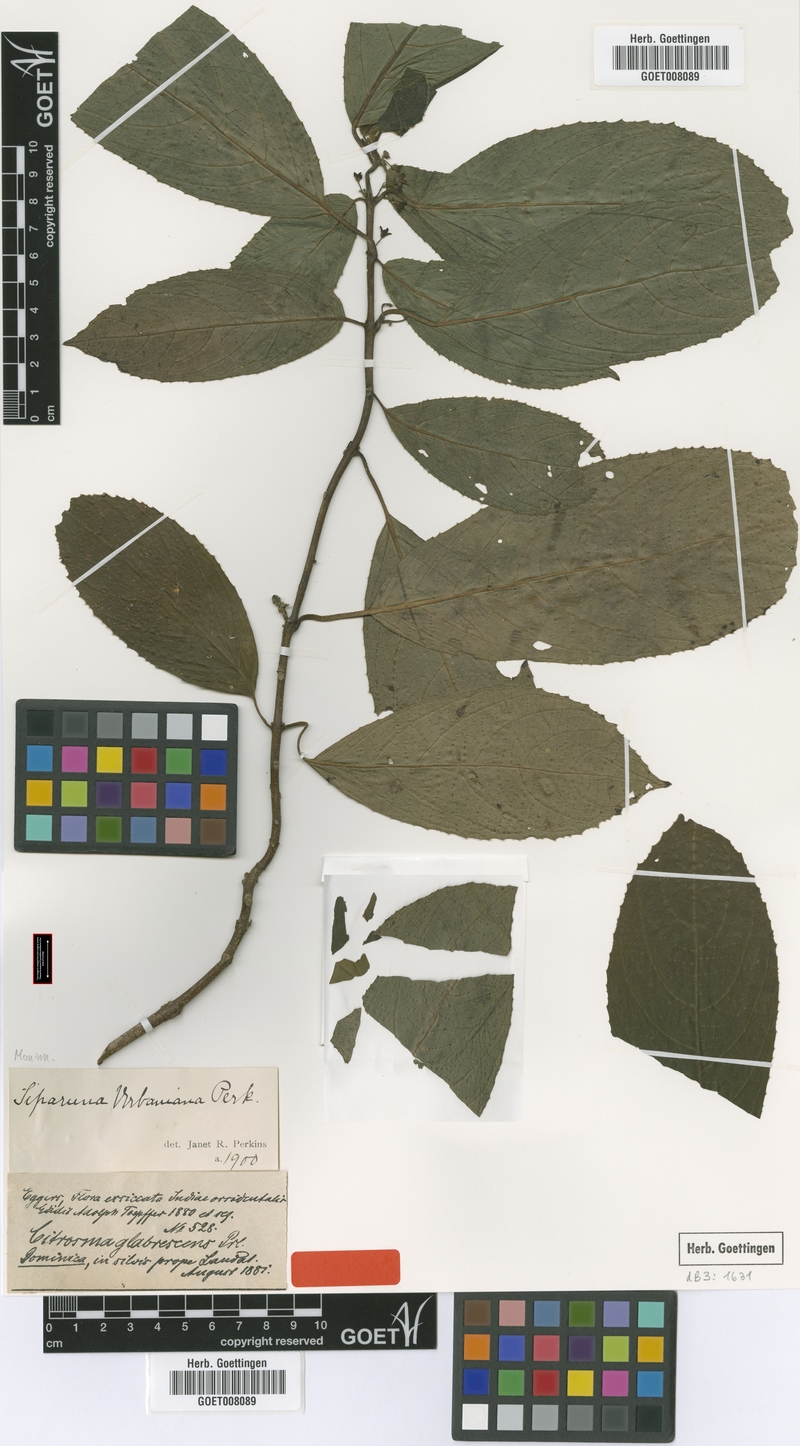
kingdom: Plantae
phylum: Tracheophyta
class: Magnoliopsida
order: Laurales
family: Siparunaceae
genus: Siparuna
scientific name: Siparuna glabrescens
